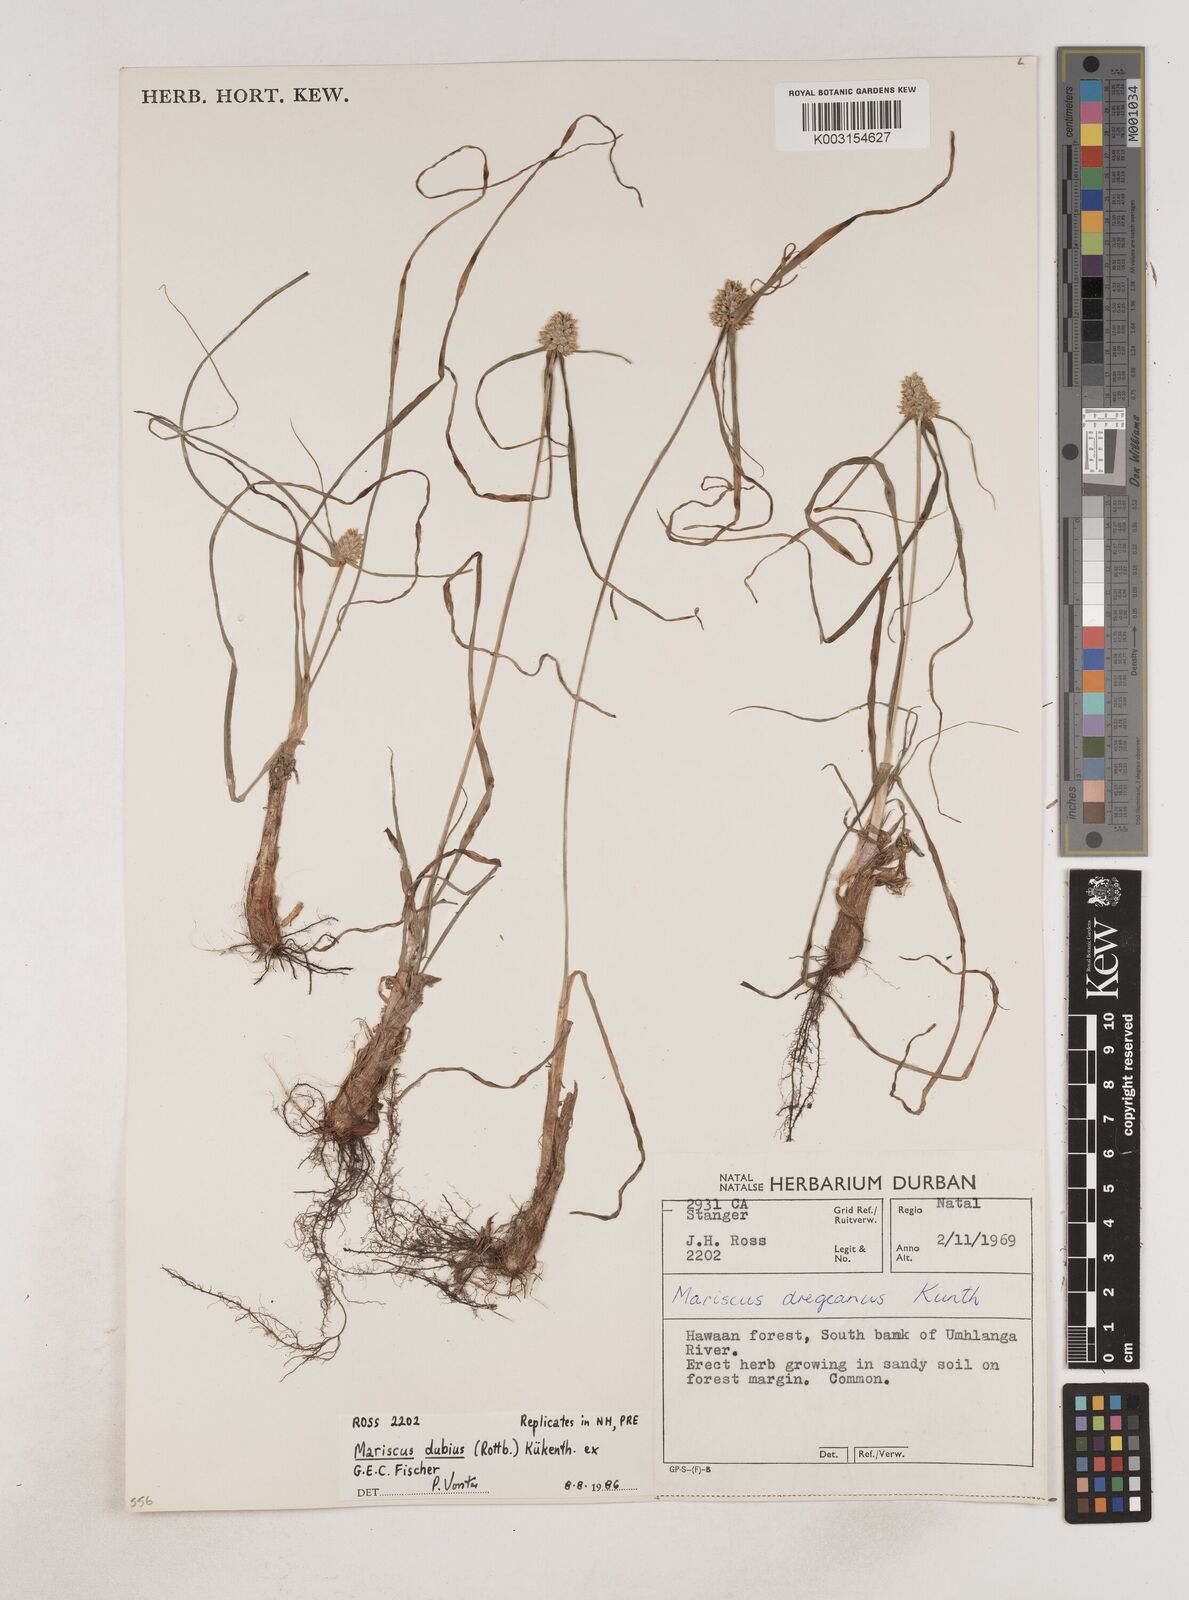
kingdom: Plantae
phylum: Tracheophyta
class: Liliopsida
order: Poales
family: Cyperaceae
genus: Cyperus
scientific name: Cyperus dubius
